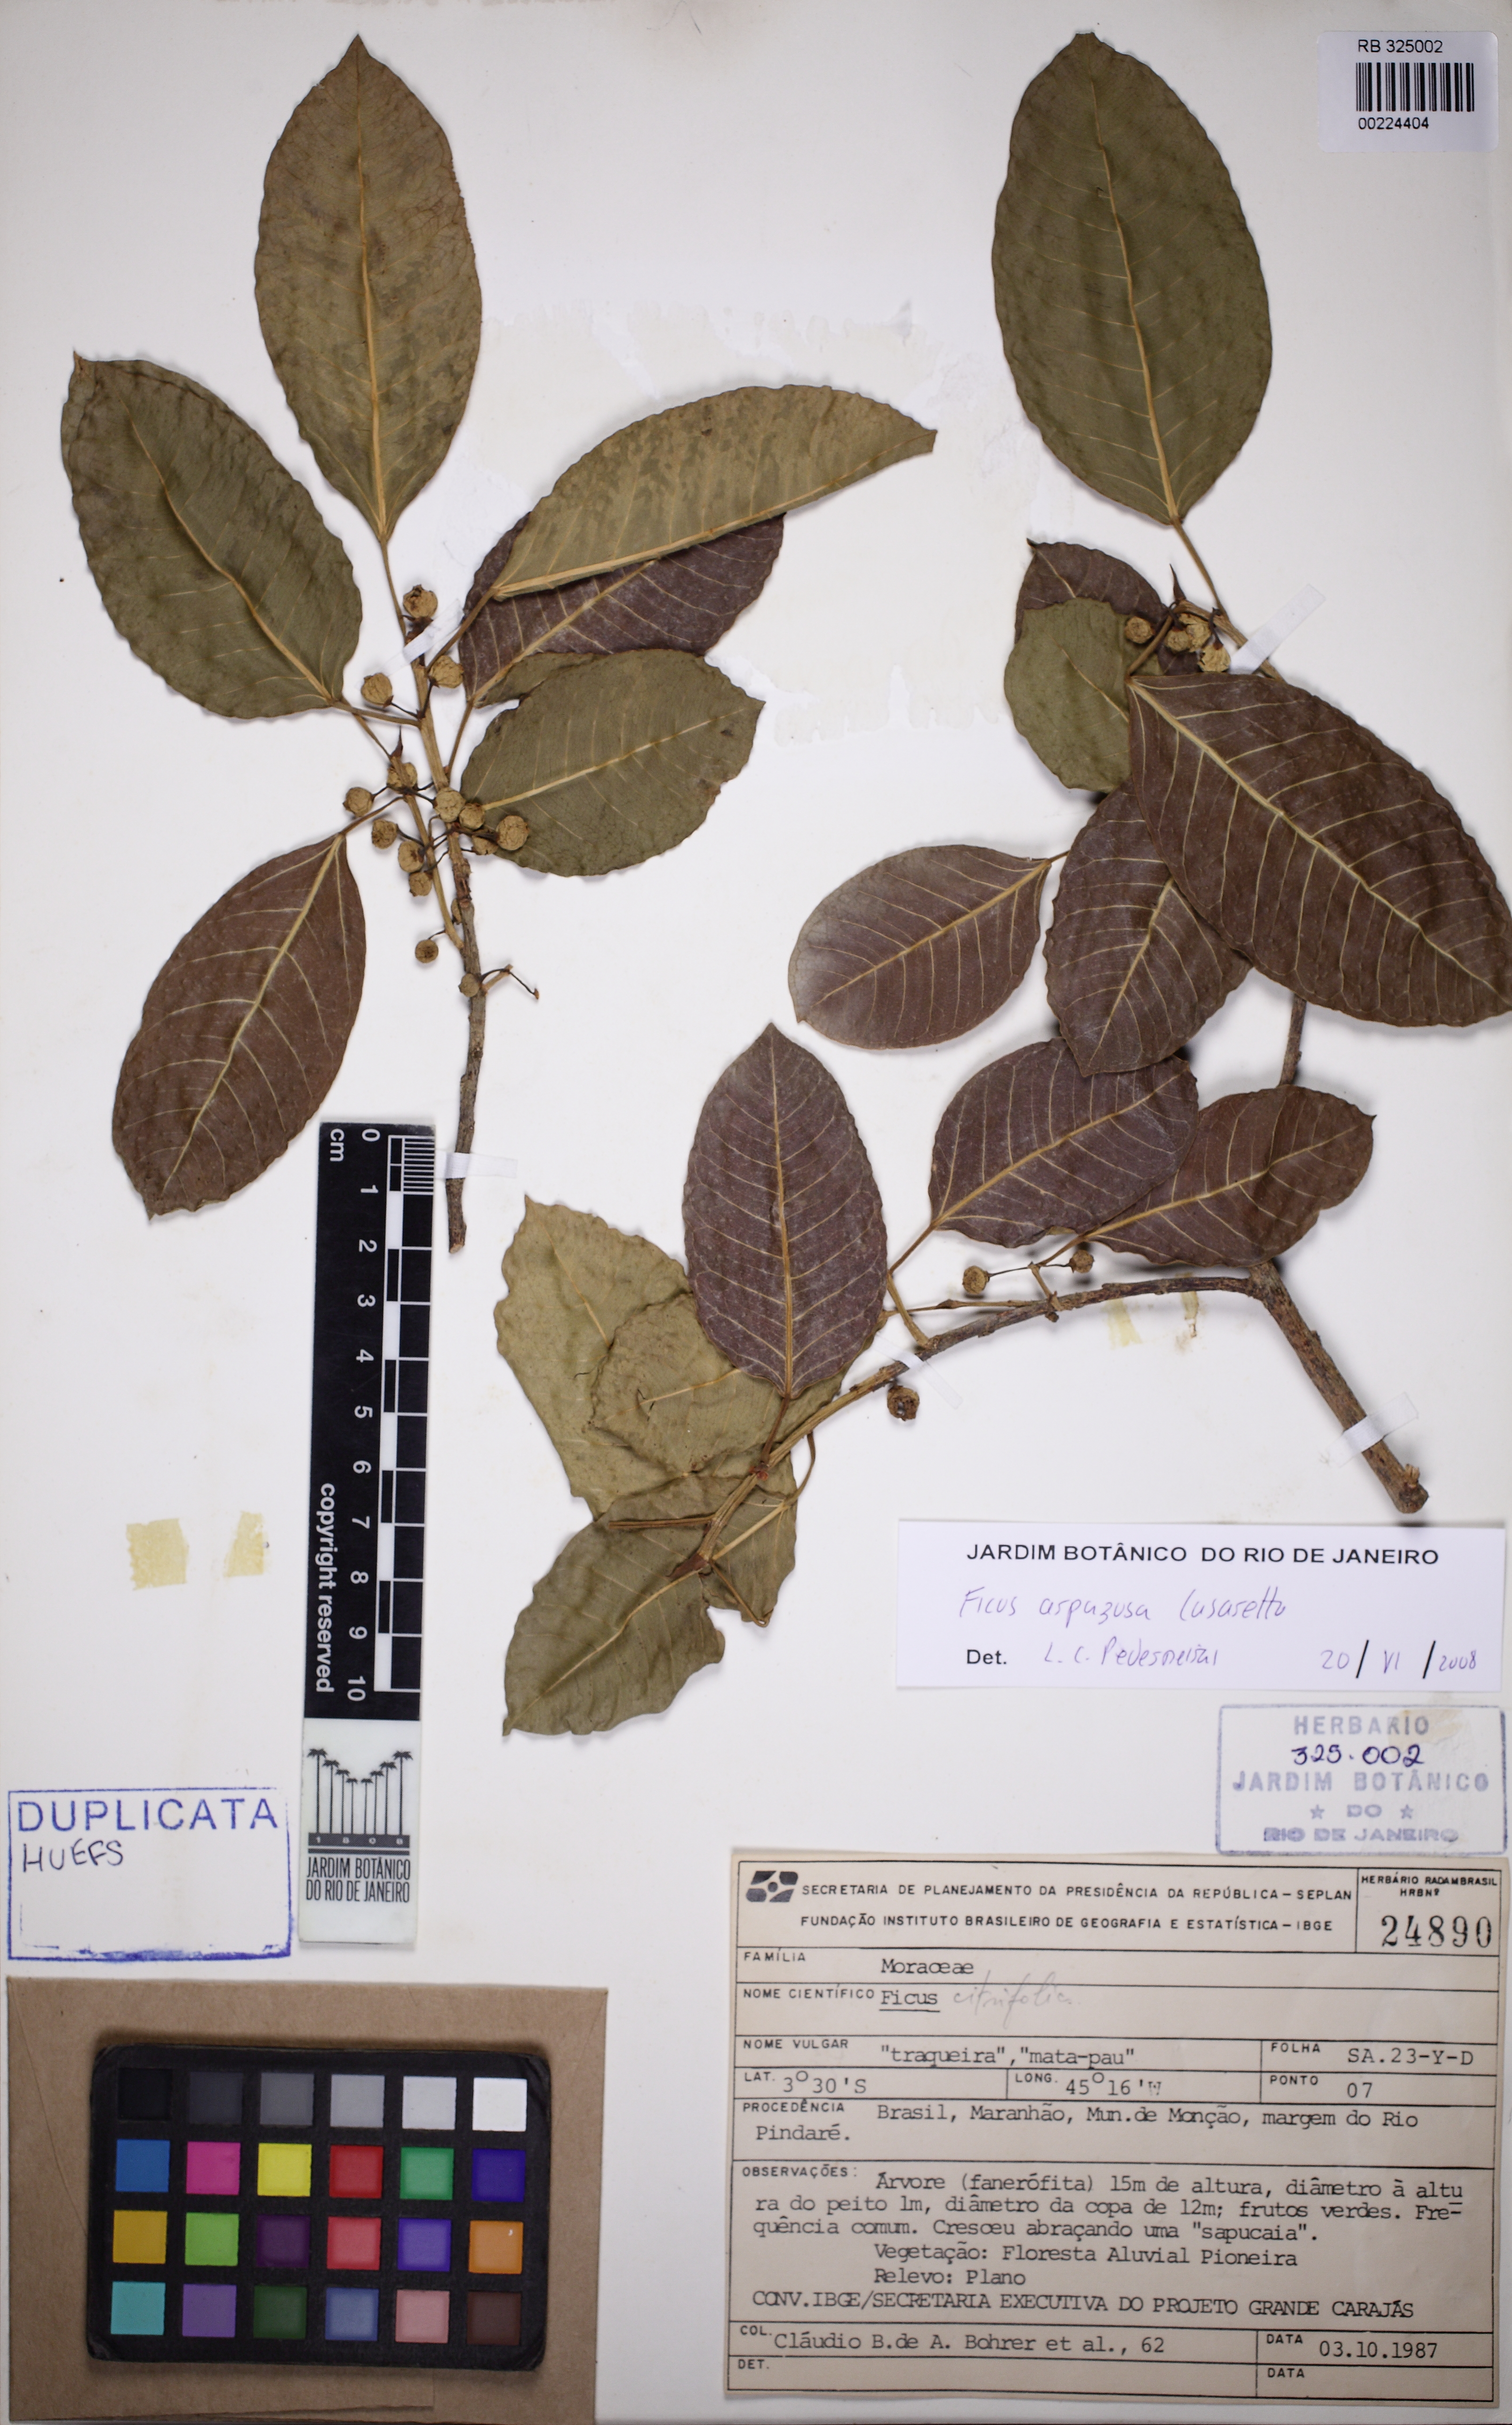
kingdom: Plantae
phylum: Tracheophyta
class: Magnoliopsida
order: Rosales
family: Moraceae
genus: Ficus
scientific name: Ficus tubulosa
